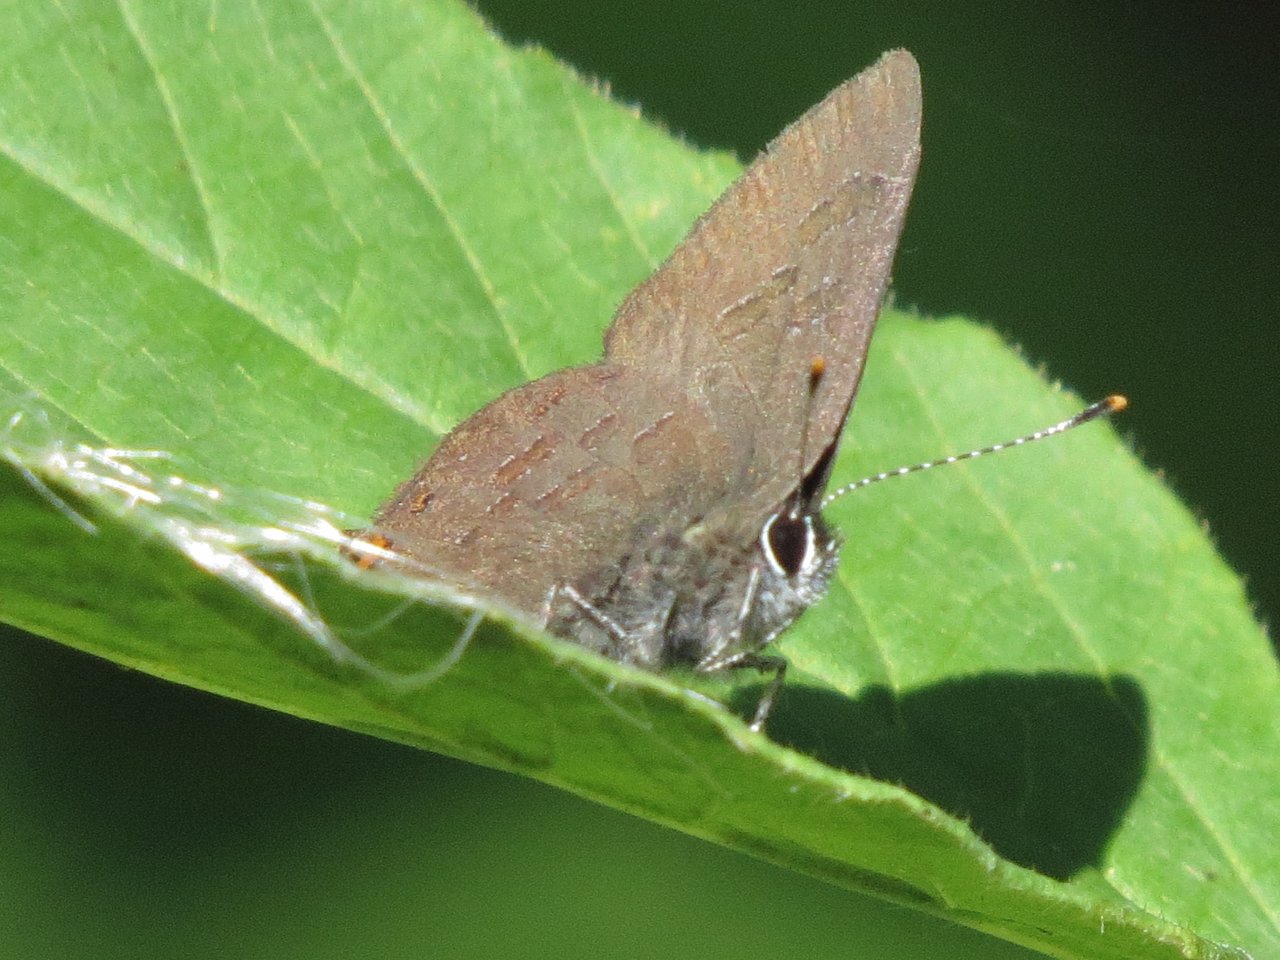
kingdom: Animalia
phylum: Arthropoda
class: Insecta
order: Lepidoptera
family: Lycaenidae
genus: Satyrium
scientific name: Satyrium liparops
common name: Striped Hairstreak
